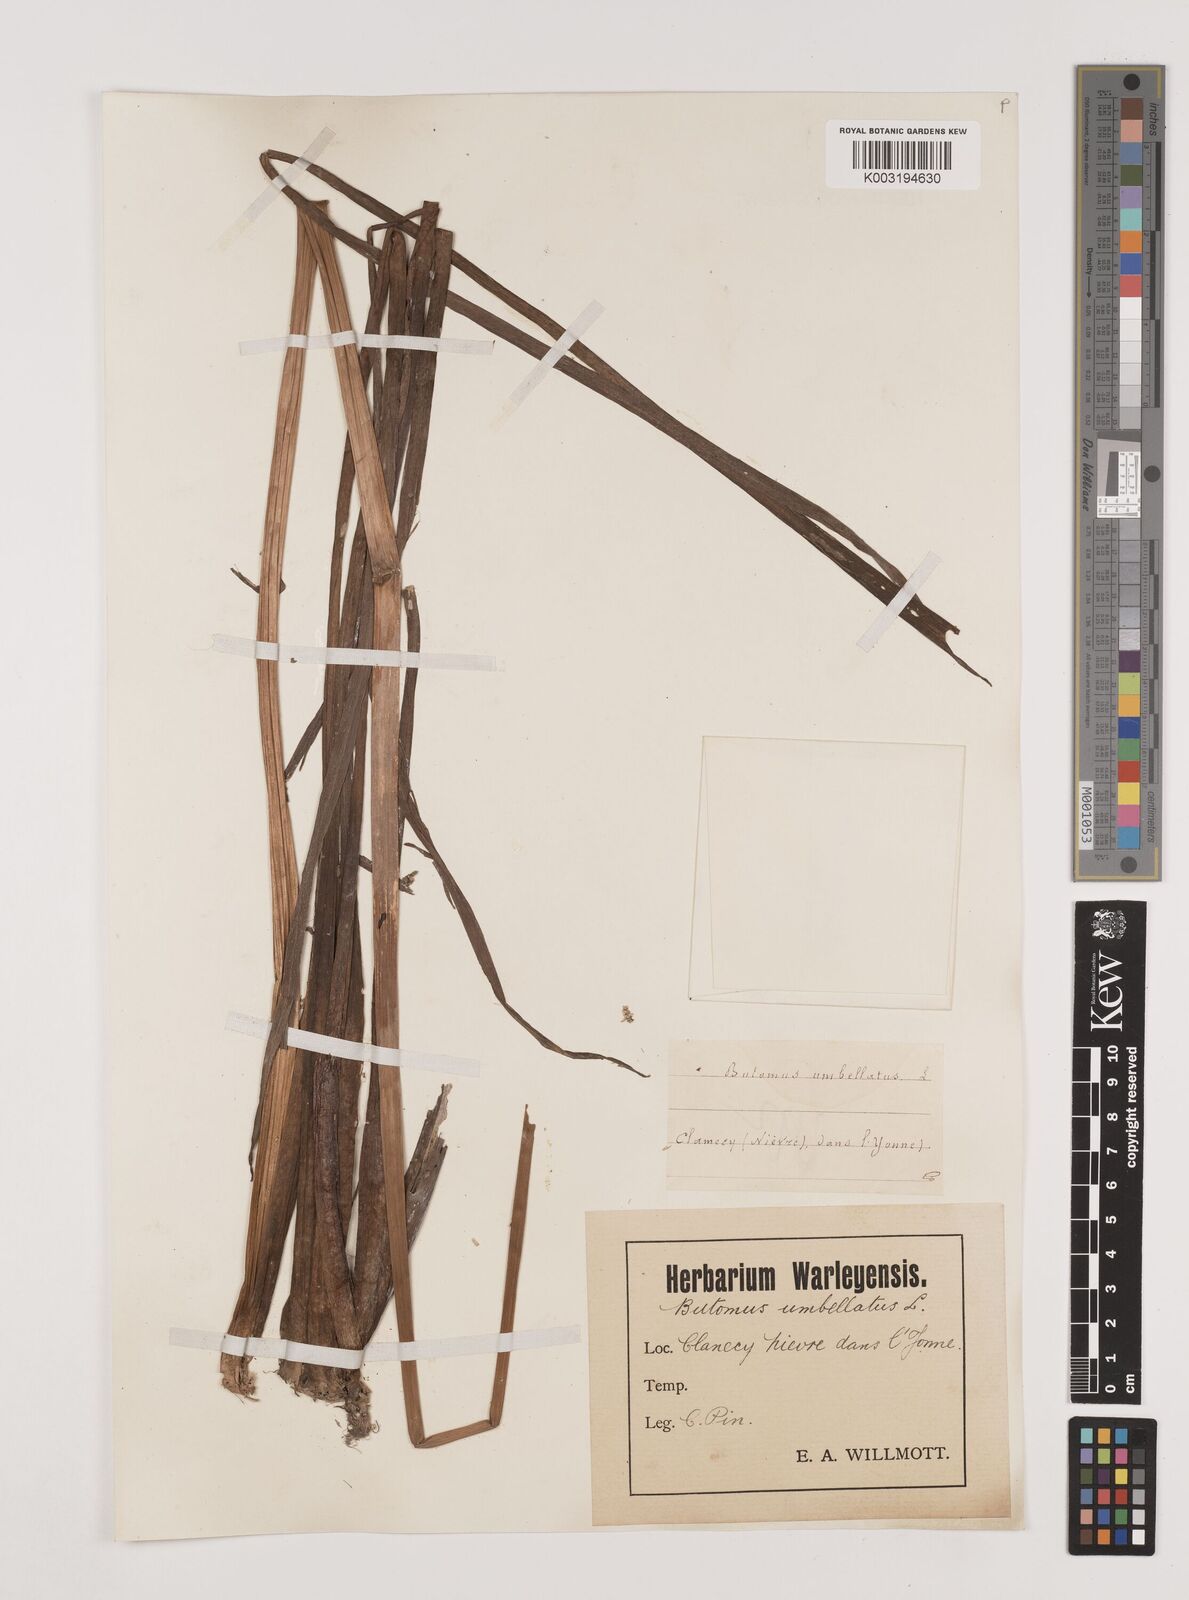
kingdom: Plantae
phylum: Tracheophyta
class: Liliopsida
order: Alismatales
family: Butomaceae
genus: Butomus
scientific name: Butomus umbellatus
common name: Flowering-rush
